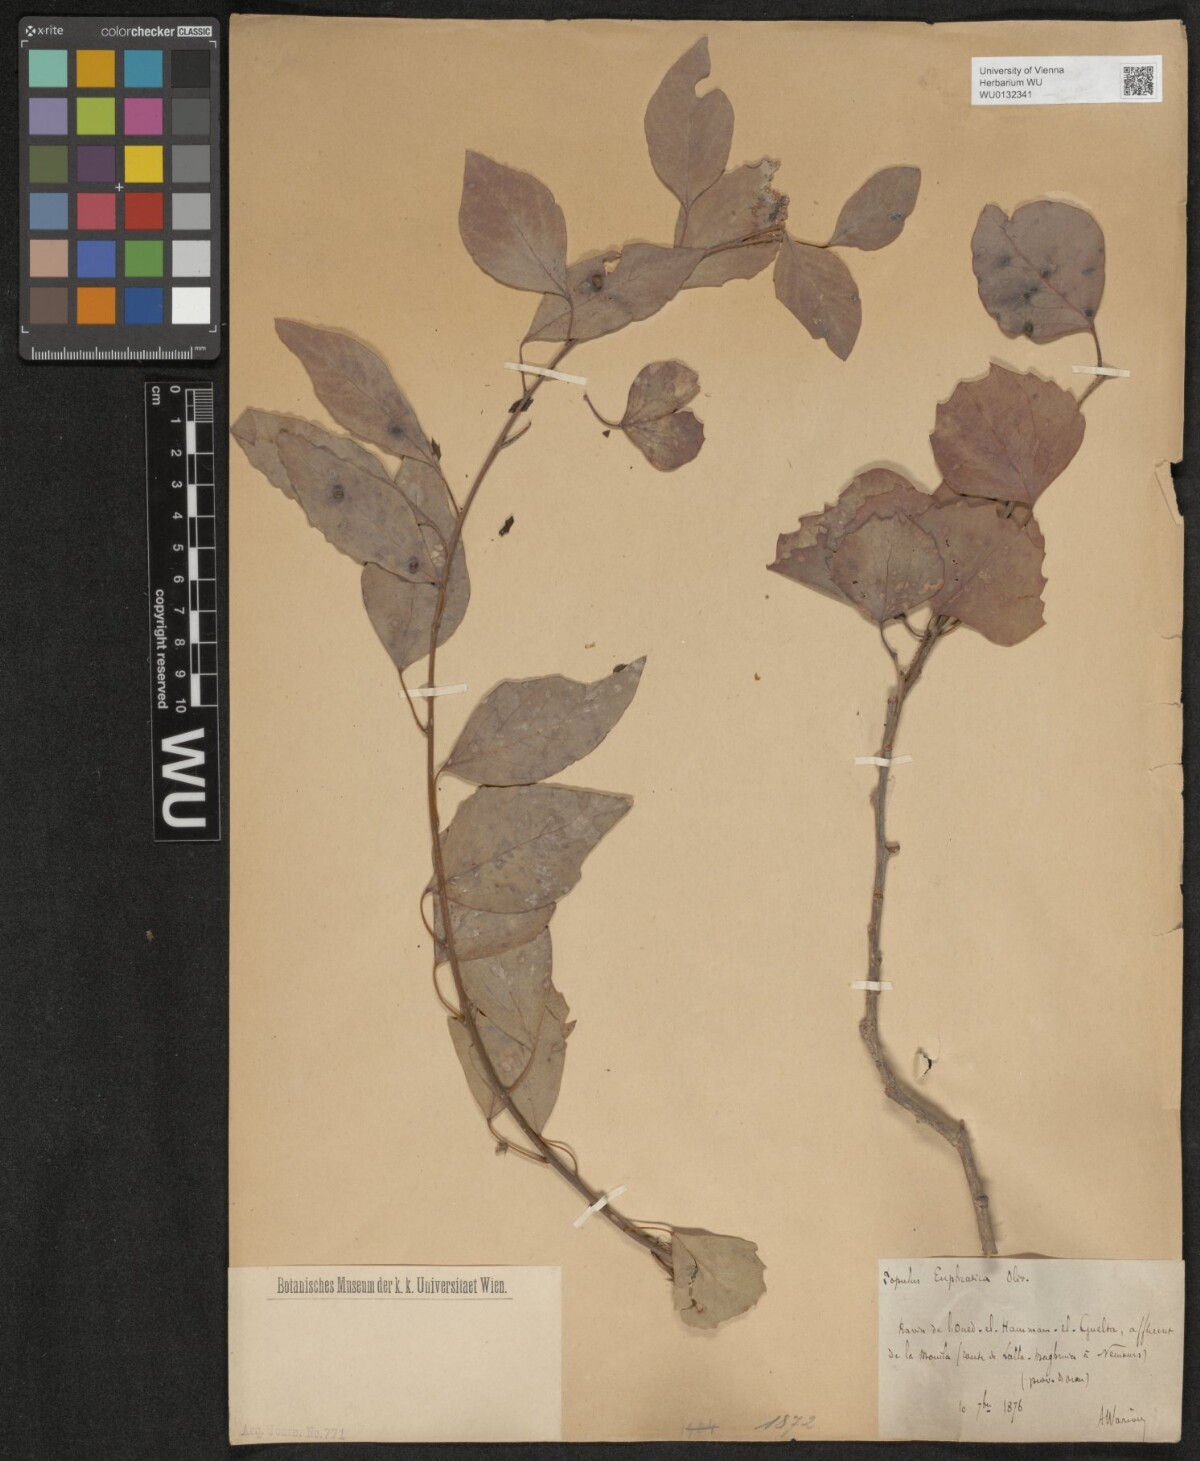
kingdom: Plantae
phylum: Tracheophyta
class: Magnoliopsida
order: Malpighiales
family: Salicaceae
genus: Populus
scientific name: Populus euphratica
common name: Euphrates poplar
